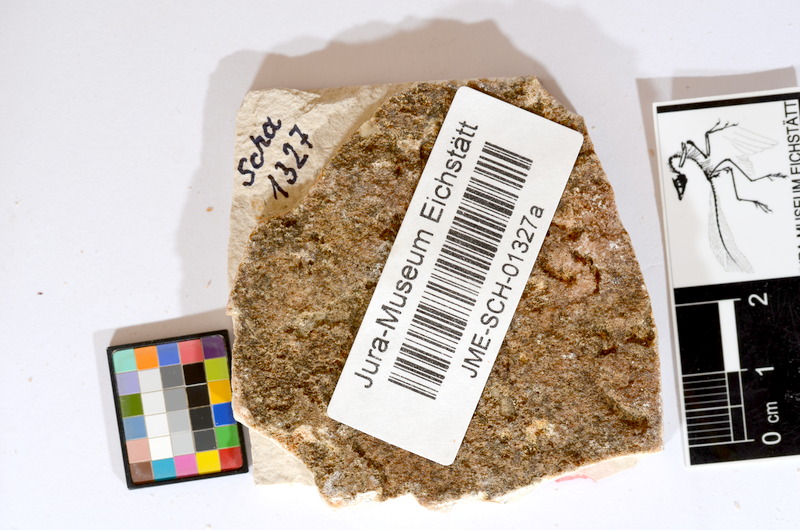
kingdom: Animalia
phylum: Chordata
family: Ascalaboidae
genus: Tharsis
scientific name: Tharsis dubius
